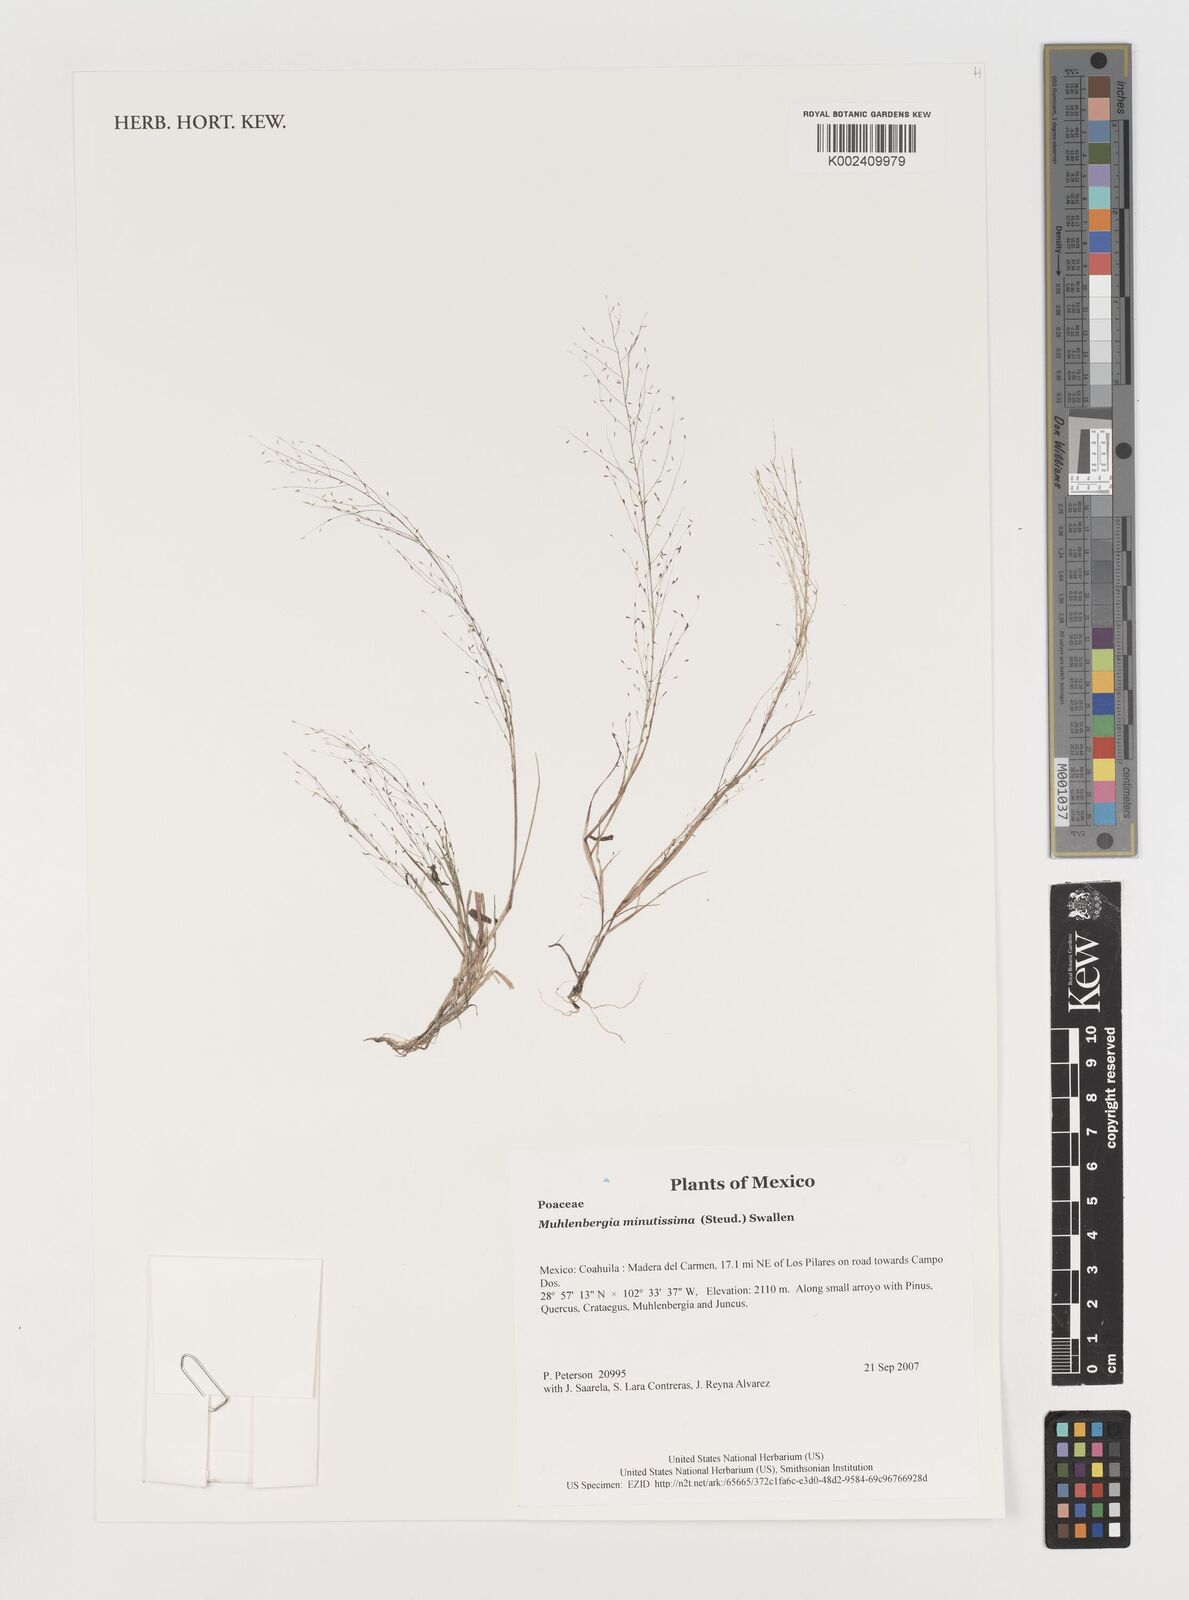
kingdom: Plantae
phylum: Tracheophyta
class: Liliopsida
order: Poales
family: Poaceae
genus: Muhlenbergia
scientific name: Muhlenbergia minutissima
